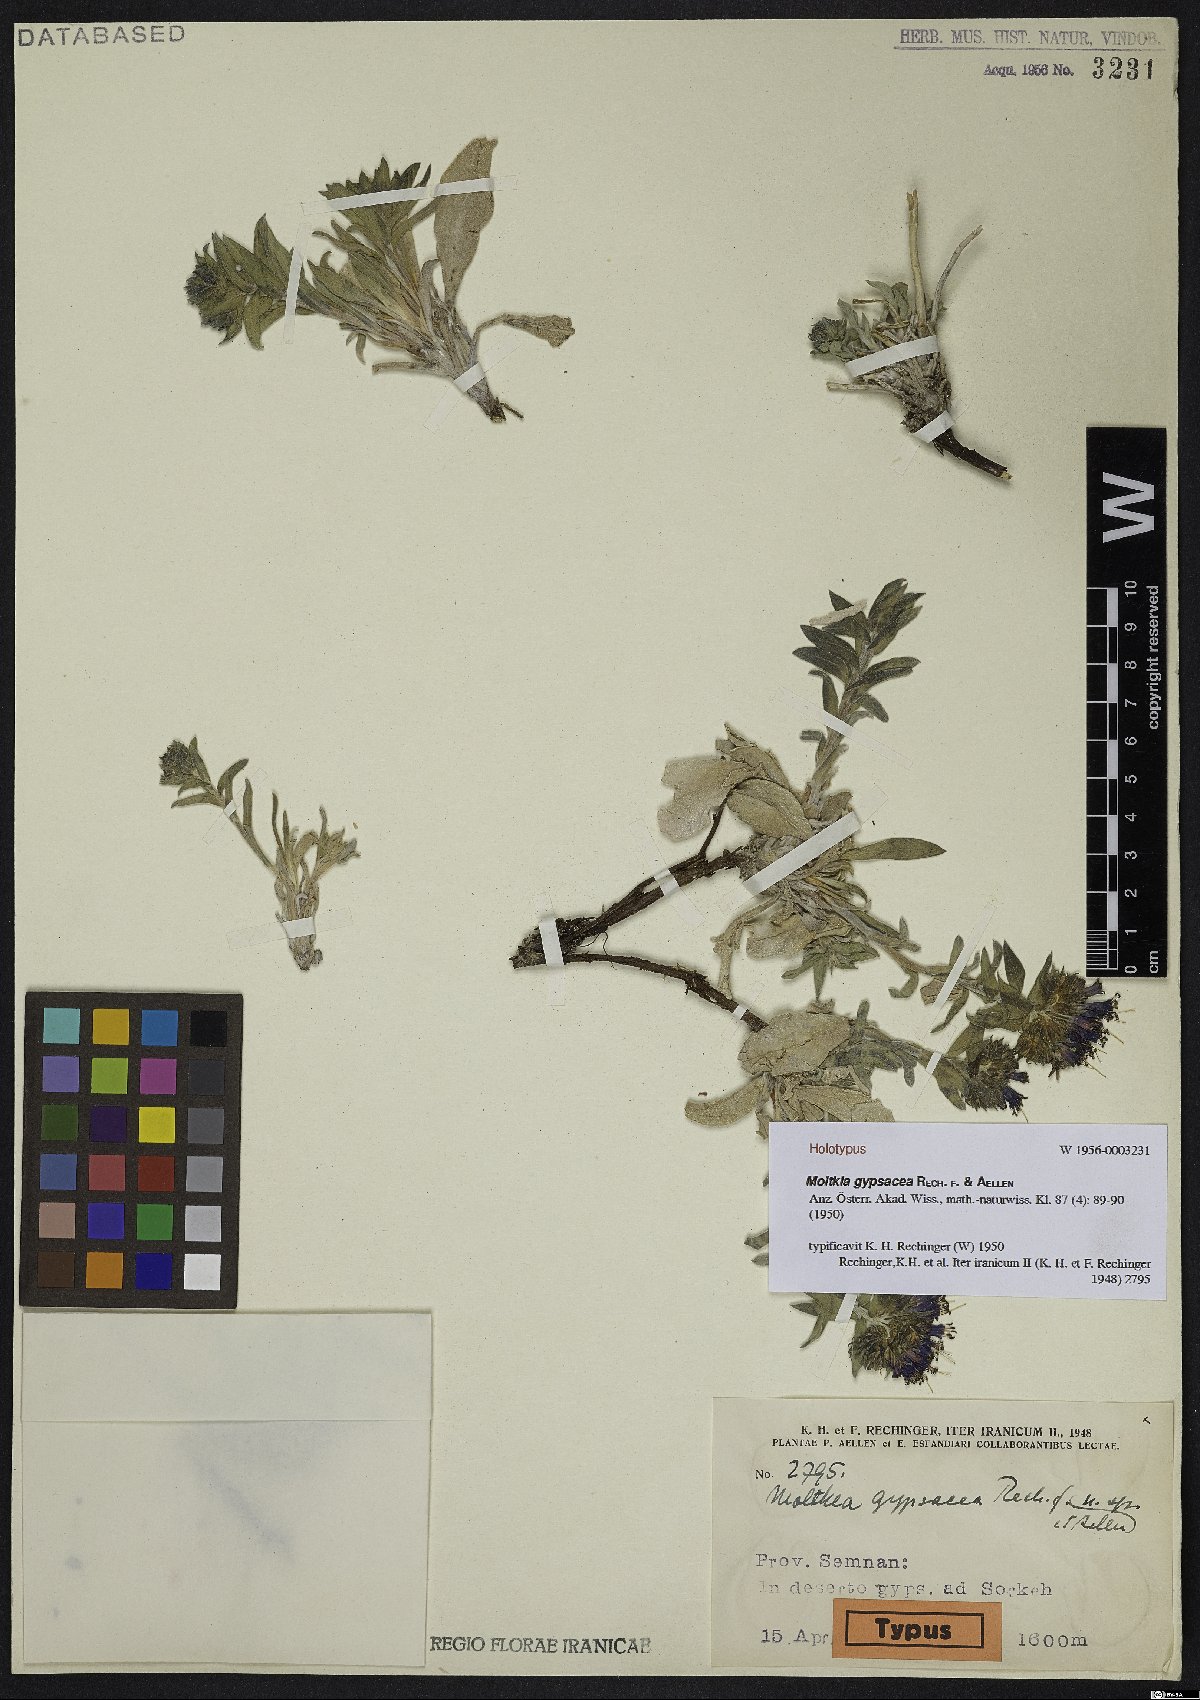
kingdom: Plantae
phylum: Tracheophyta
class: Magnoliopsida
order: Boraginales
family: Boraginaceae
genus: Moltkia
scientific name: Moltkia gypsacea
